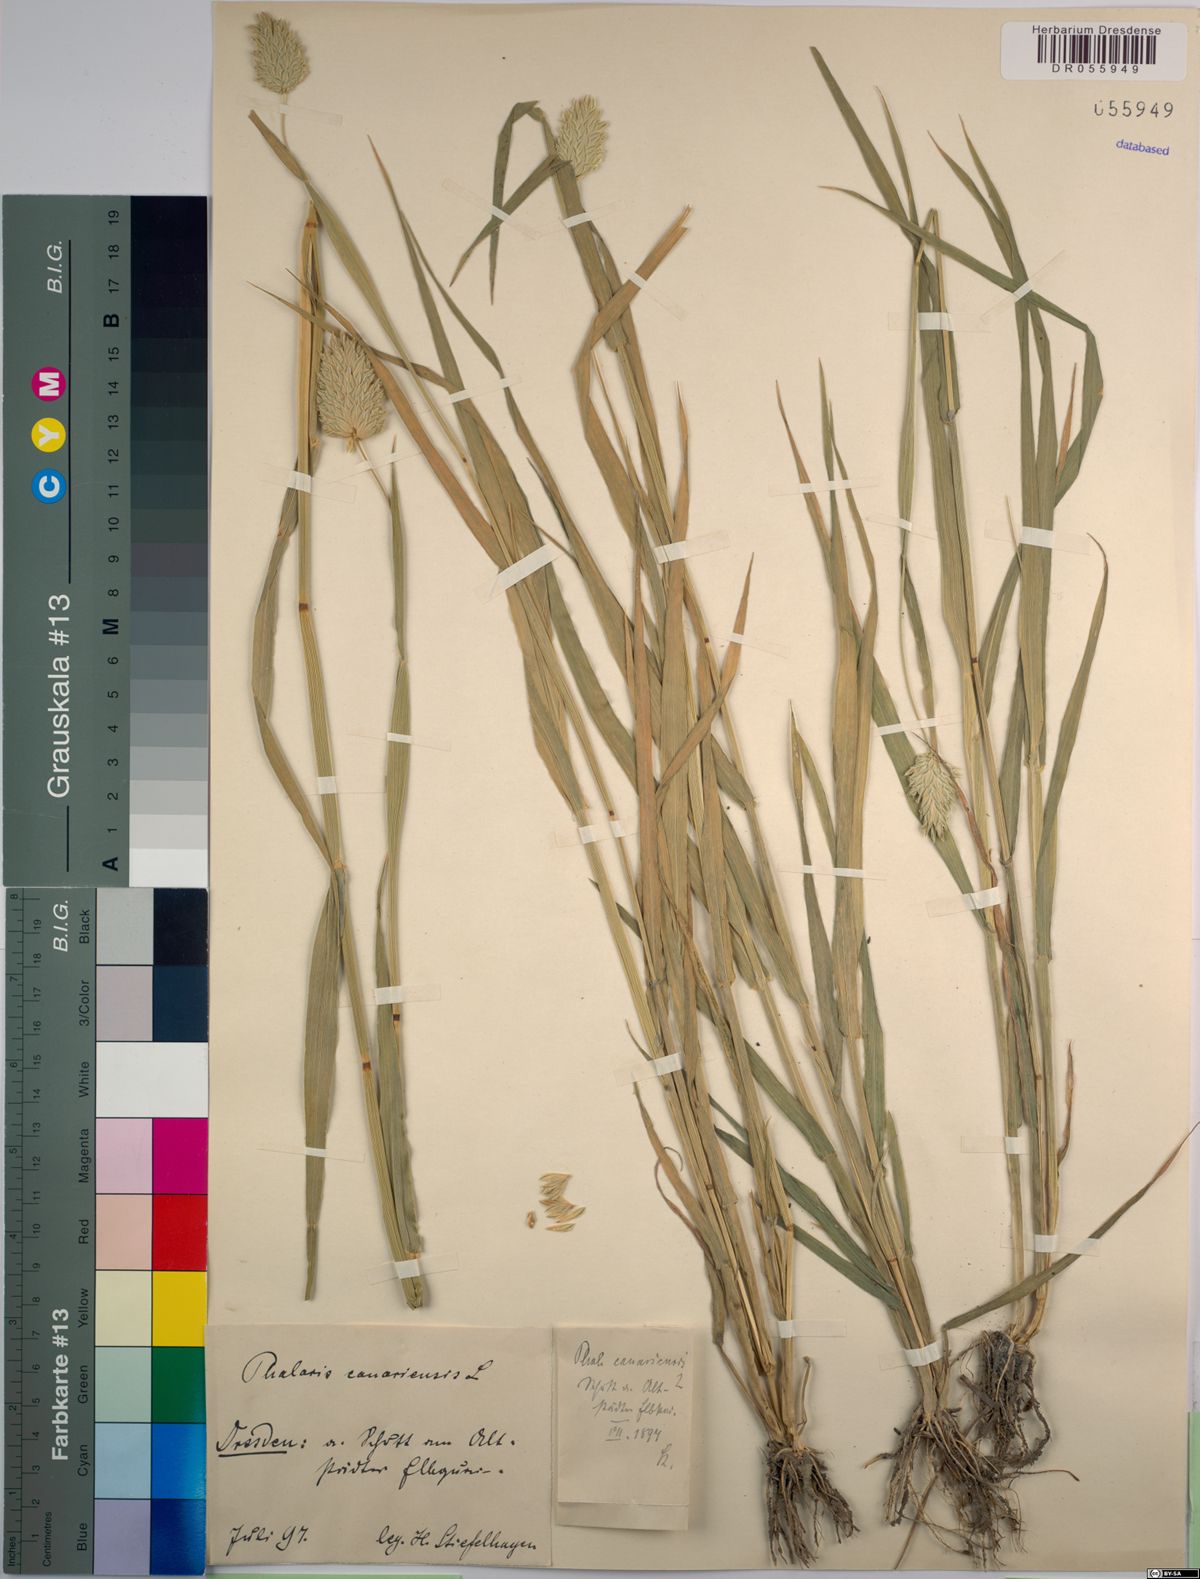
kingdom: Plantae
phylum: Tracheophyta
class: Liliopsida
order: Poales
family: Poaceae
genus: Phalaris
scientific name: Phalaris canariensis
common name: Annual canarygrass
